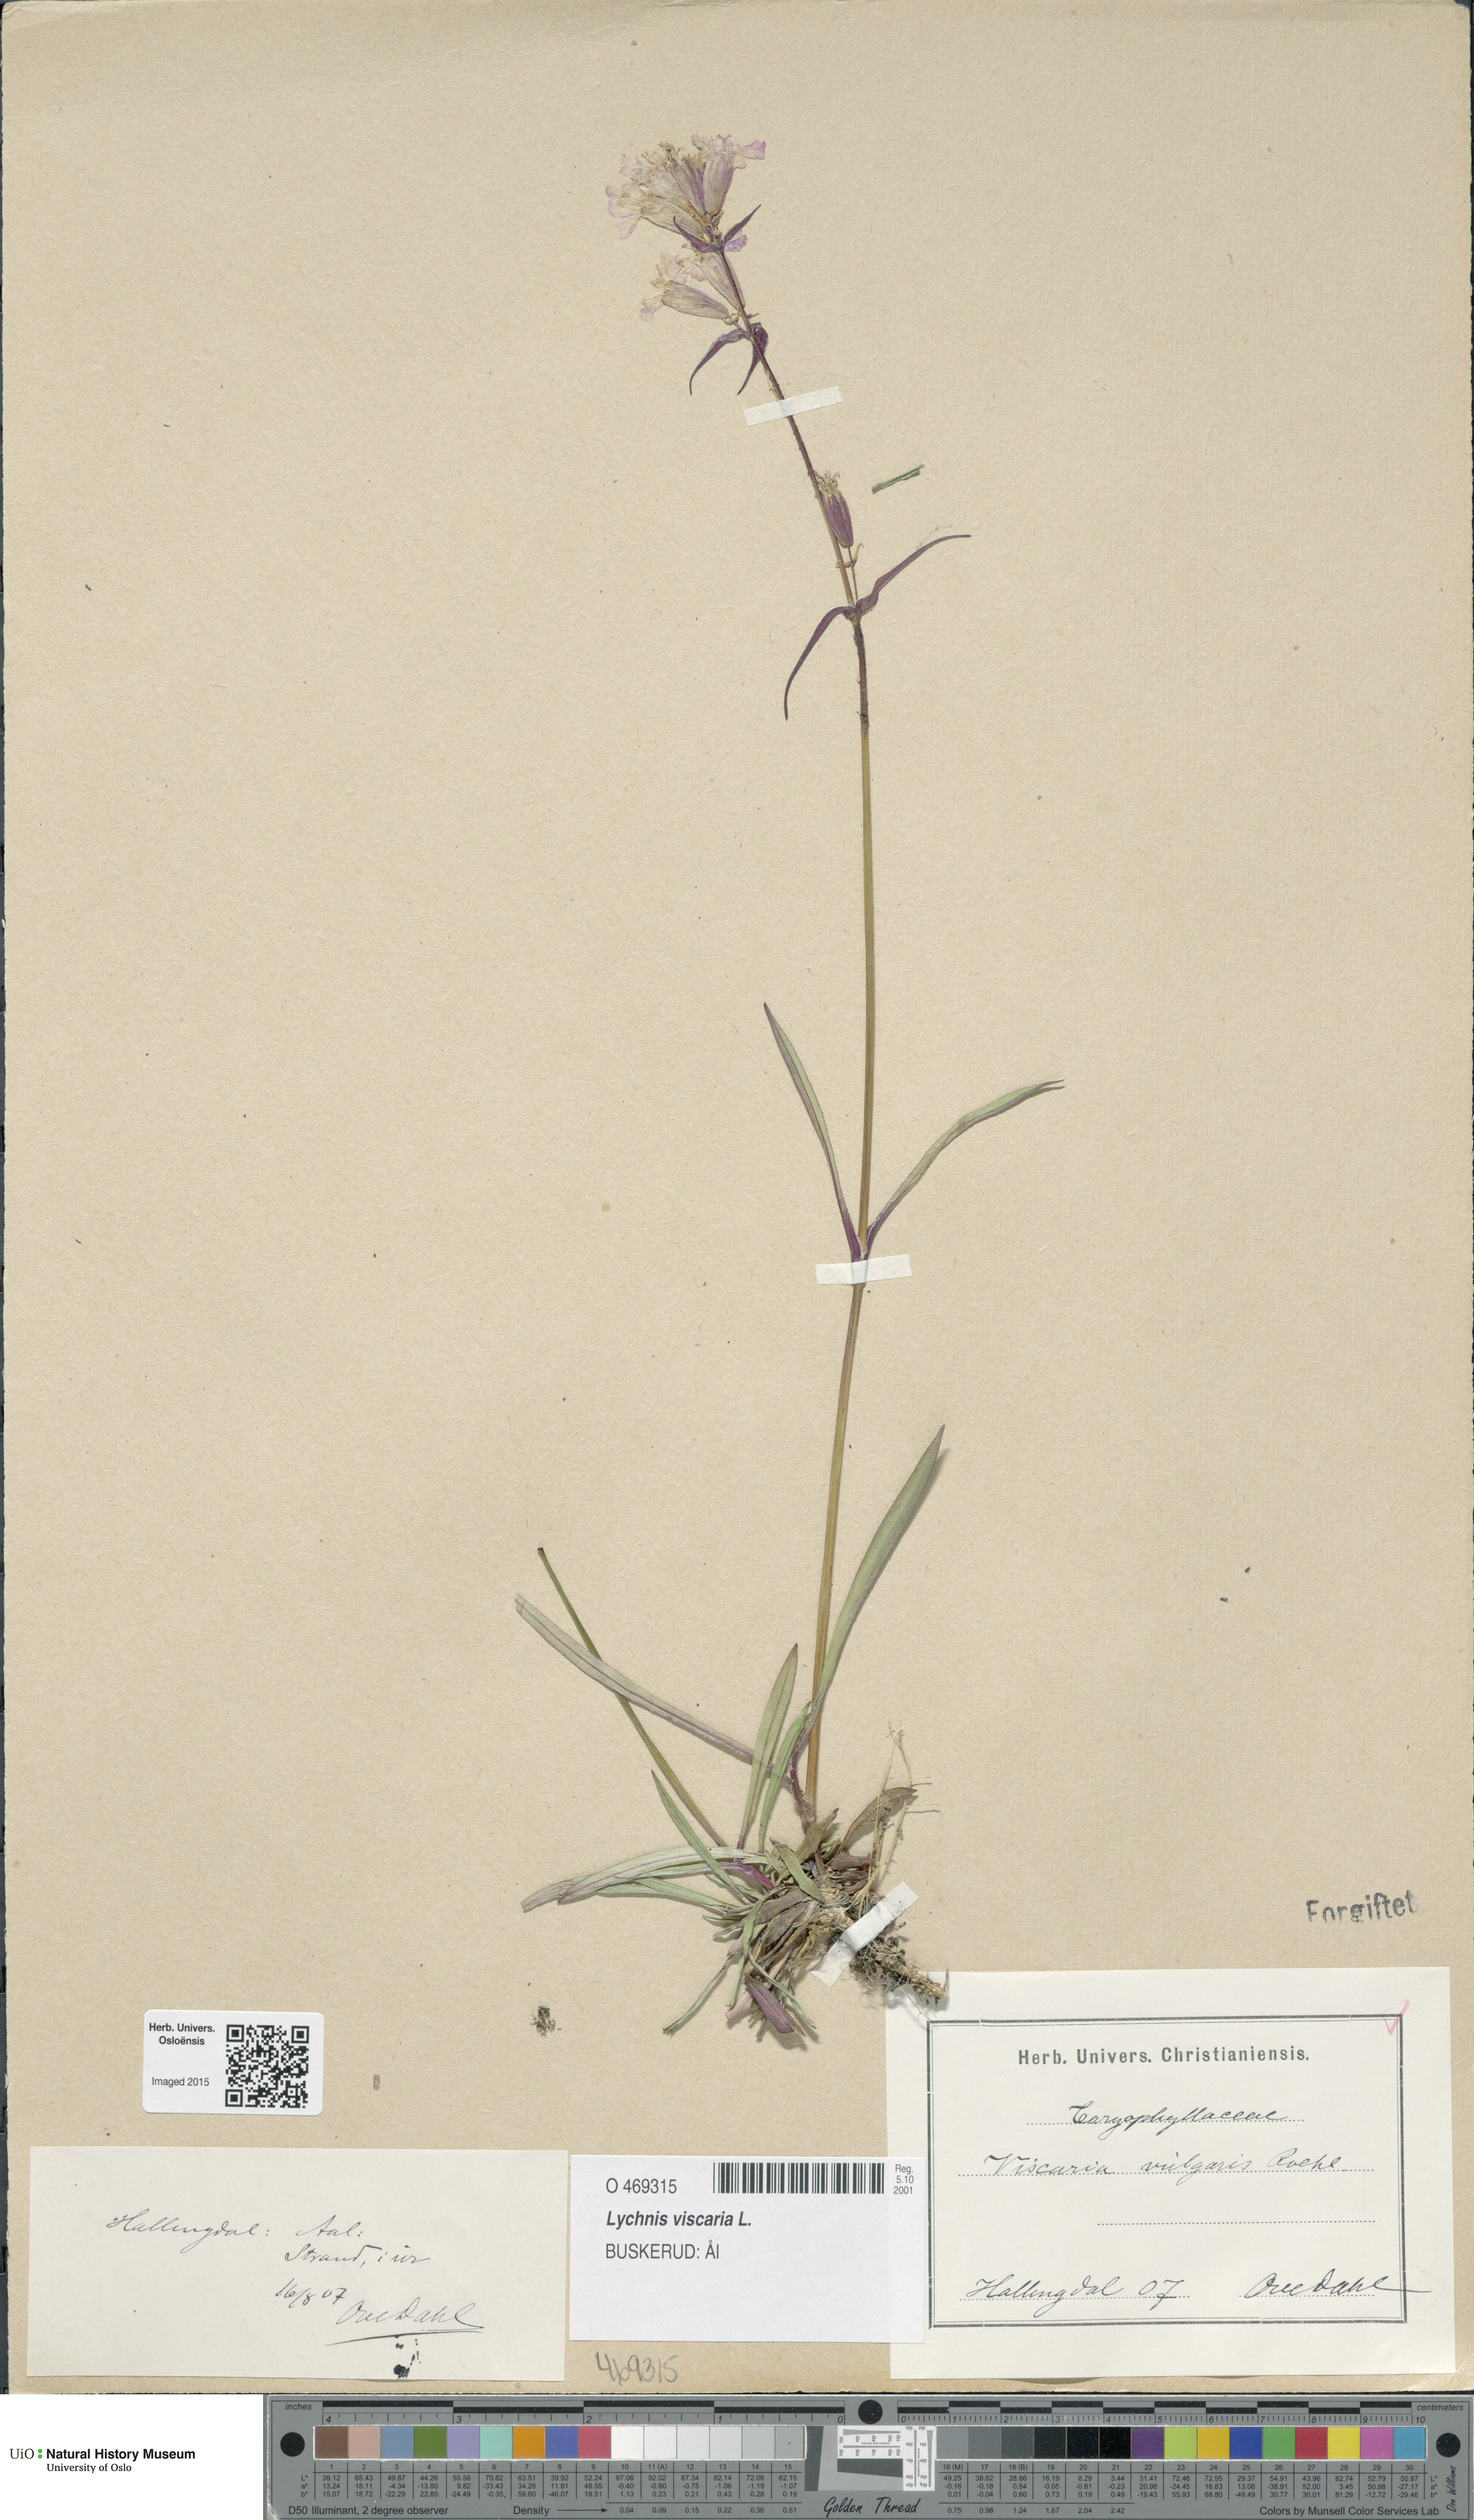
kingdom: Plantae
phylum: Tracheophyta
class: Magnoliopsida
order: Caryophyllales
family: Caryophyllaceae
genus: Viscaria
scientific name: Viscaria vulgaris
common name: Clammy campion
